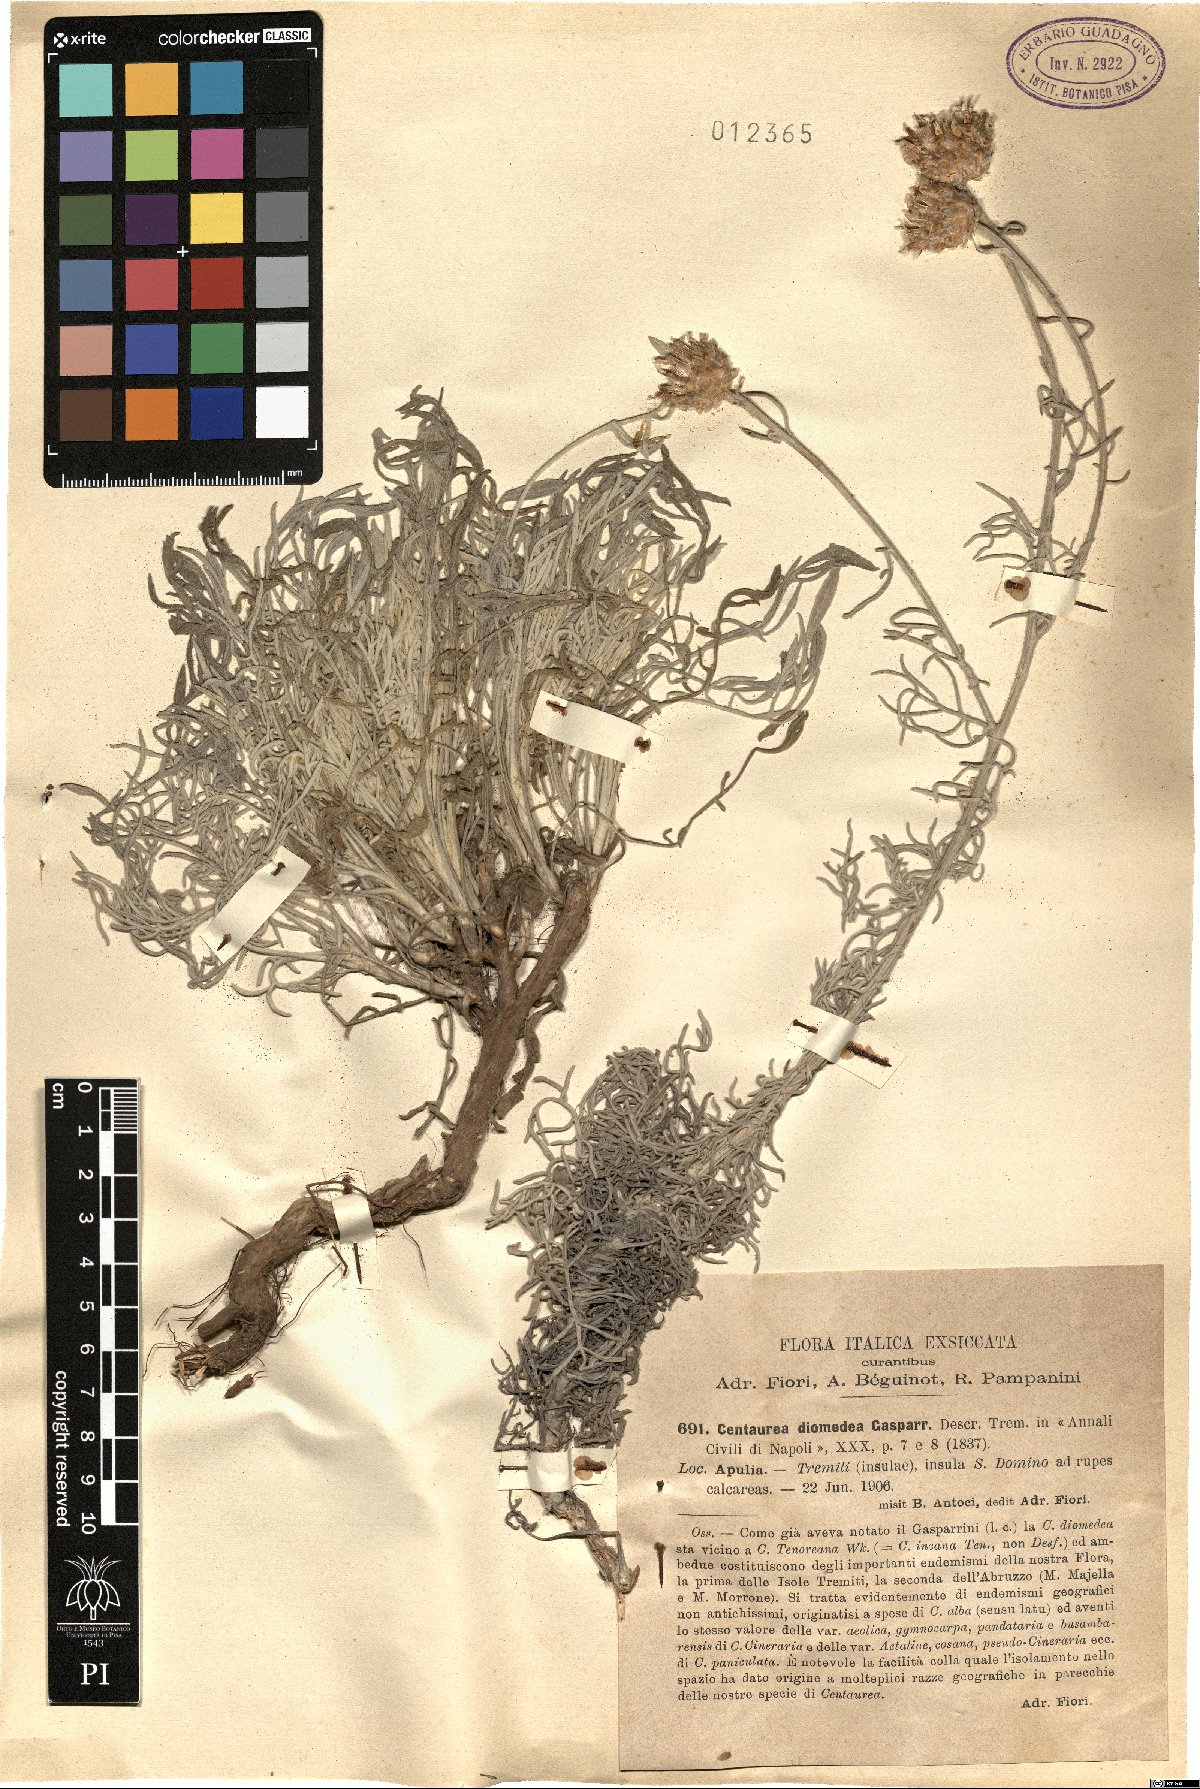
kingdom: Plantae
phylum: Tracheophyta
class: Magnoliopsida
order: Asterales
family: Asteraceae
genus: Centaurea
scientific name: Centaurea diomedea
